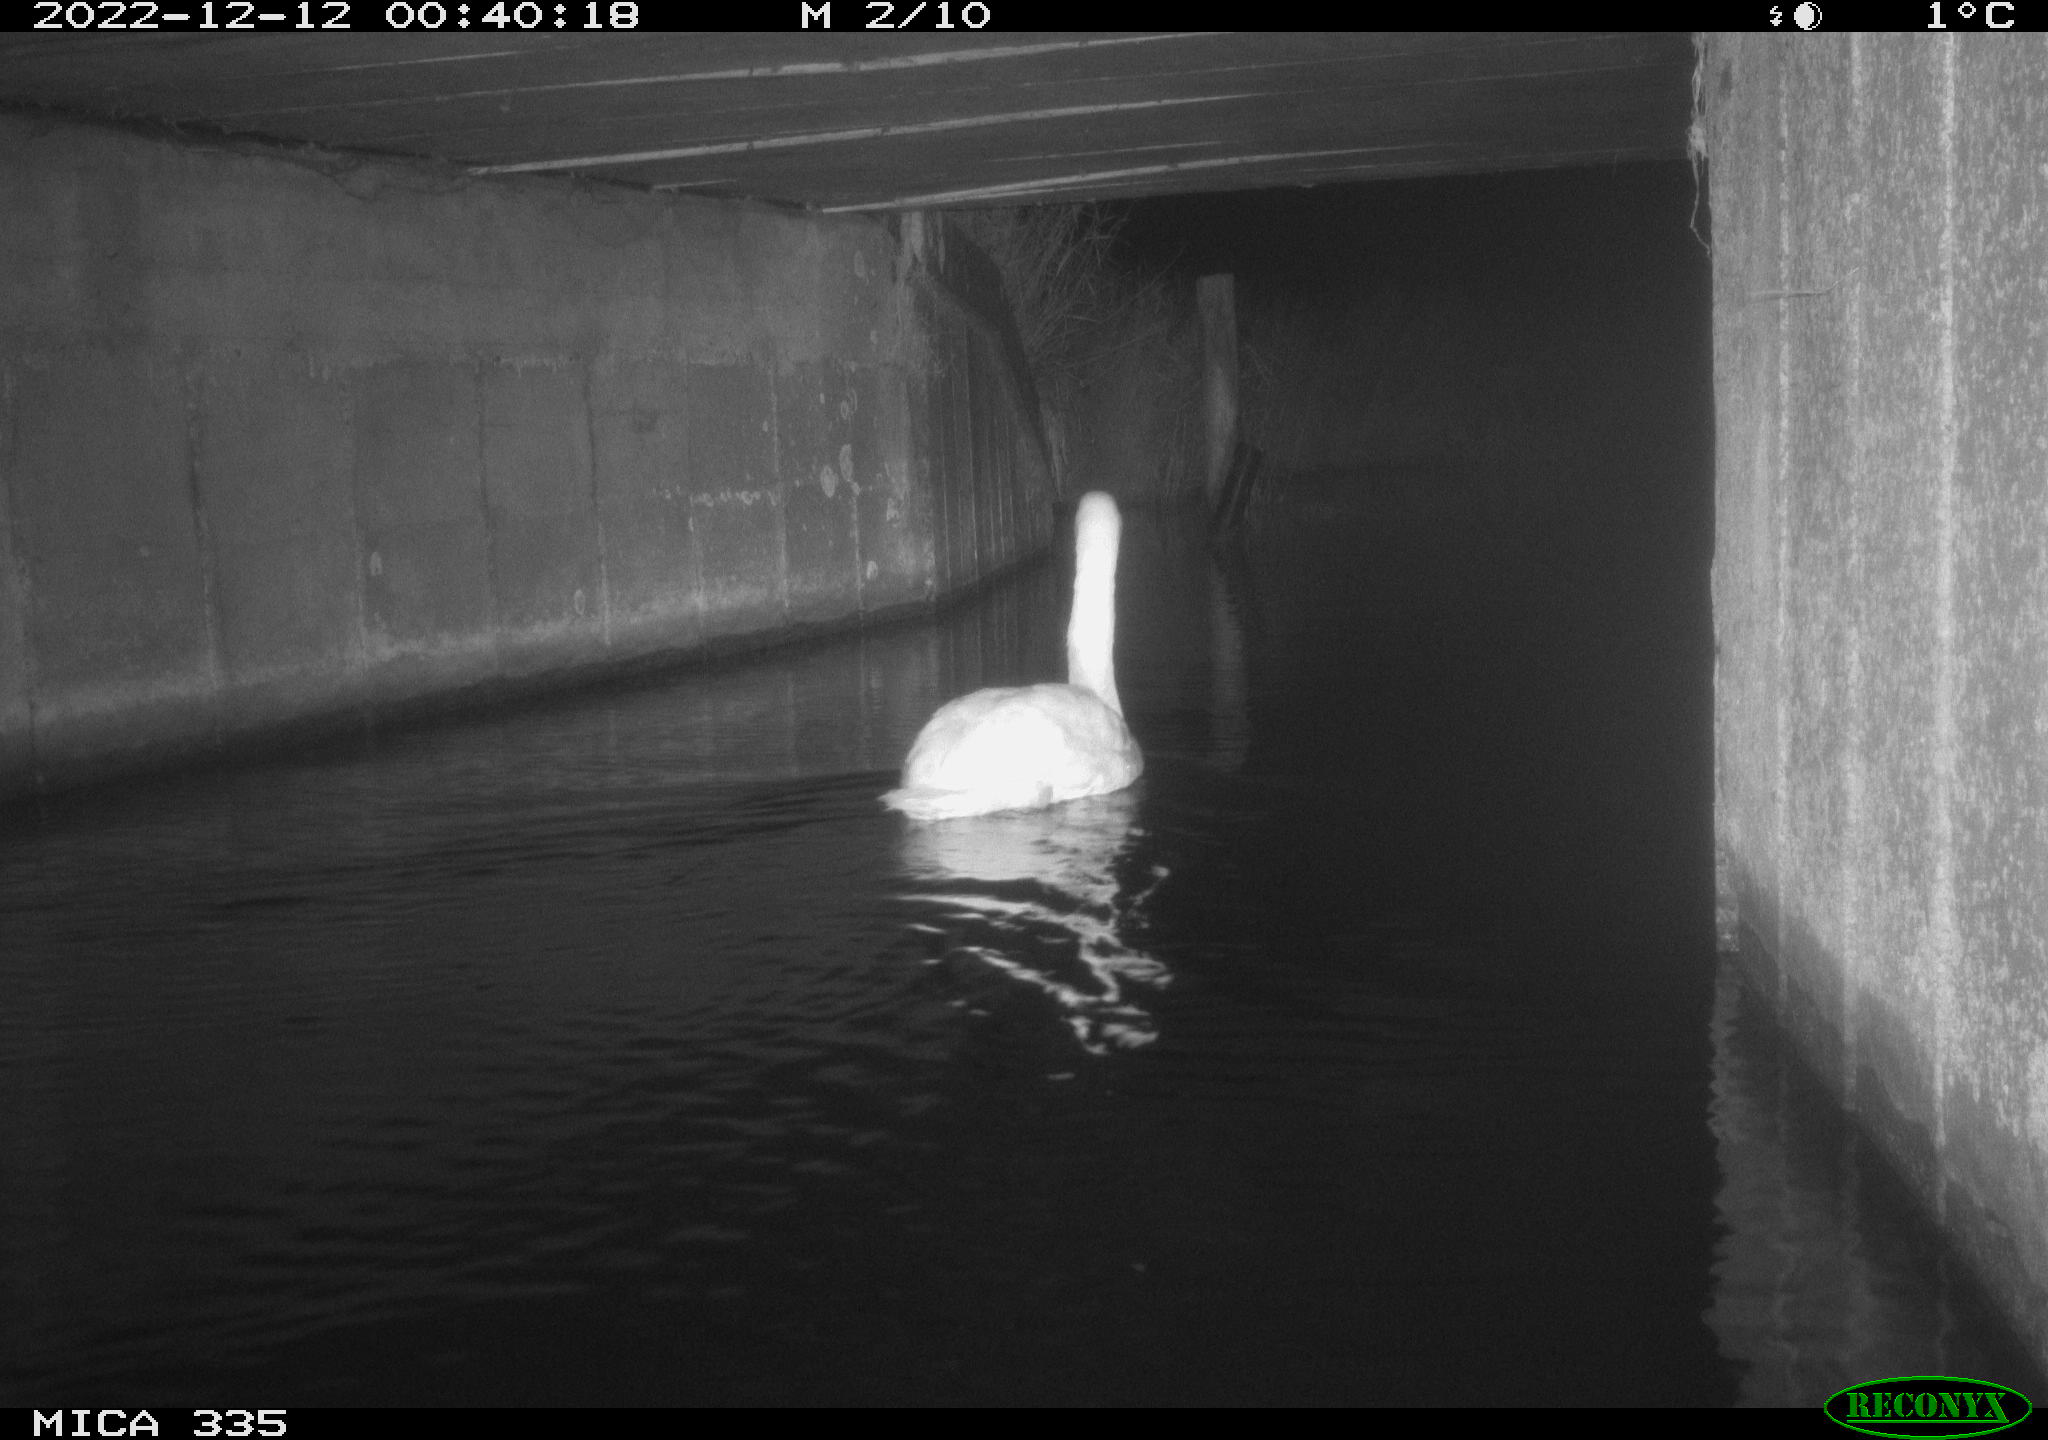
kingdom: Animalia
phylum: Chordata
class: Aves
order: Anseriformes
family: Anatidae
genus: Cygnus
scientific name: Cygnus olor
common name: Mute swan
